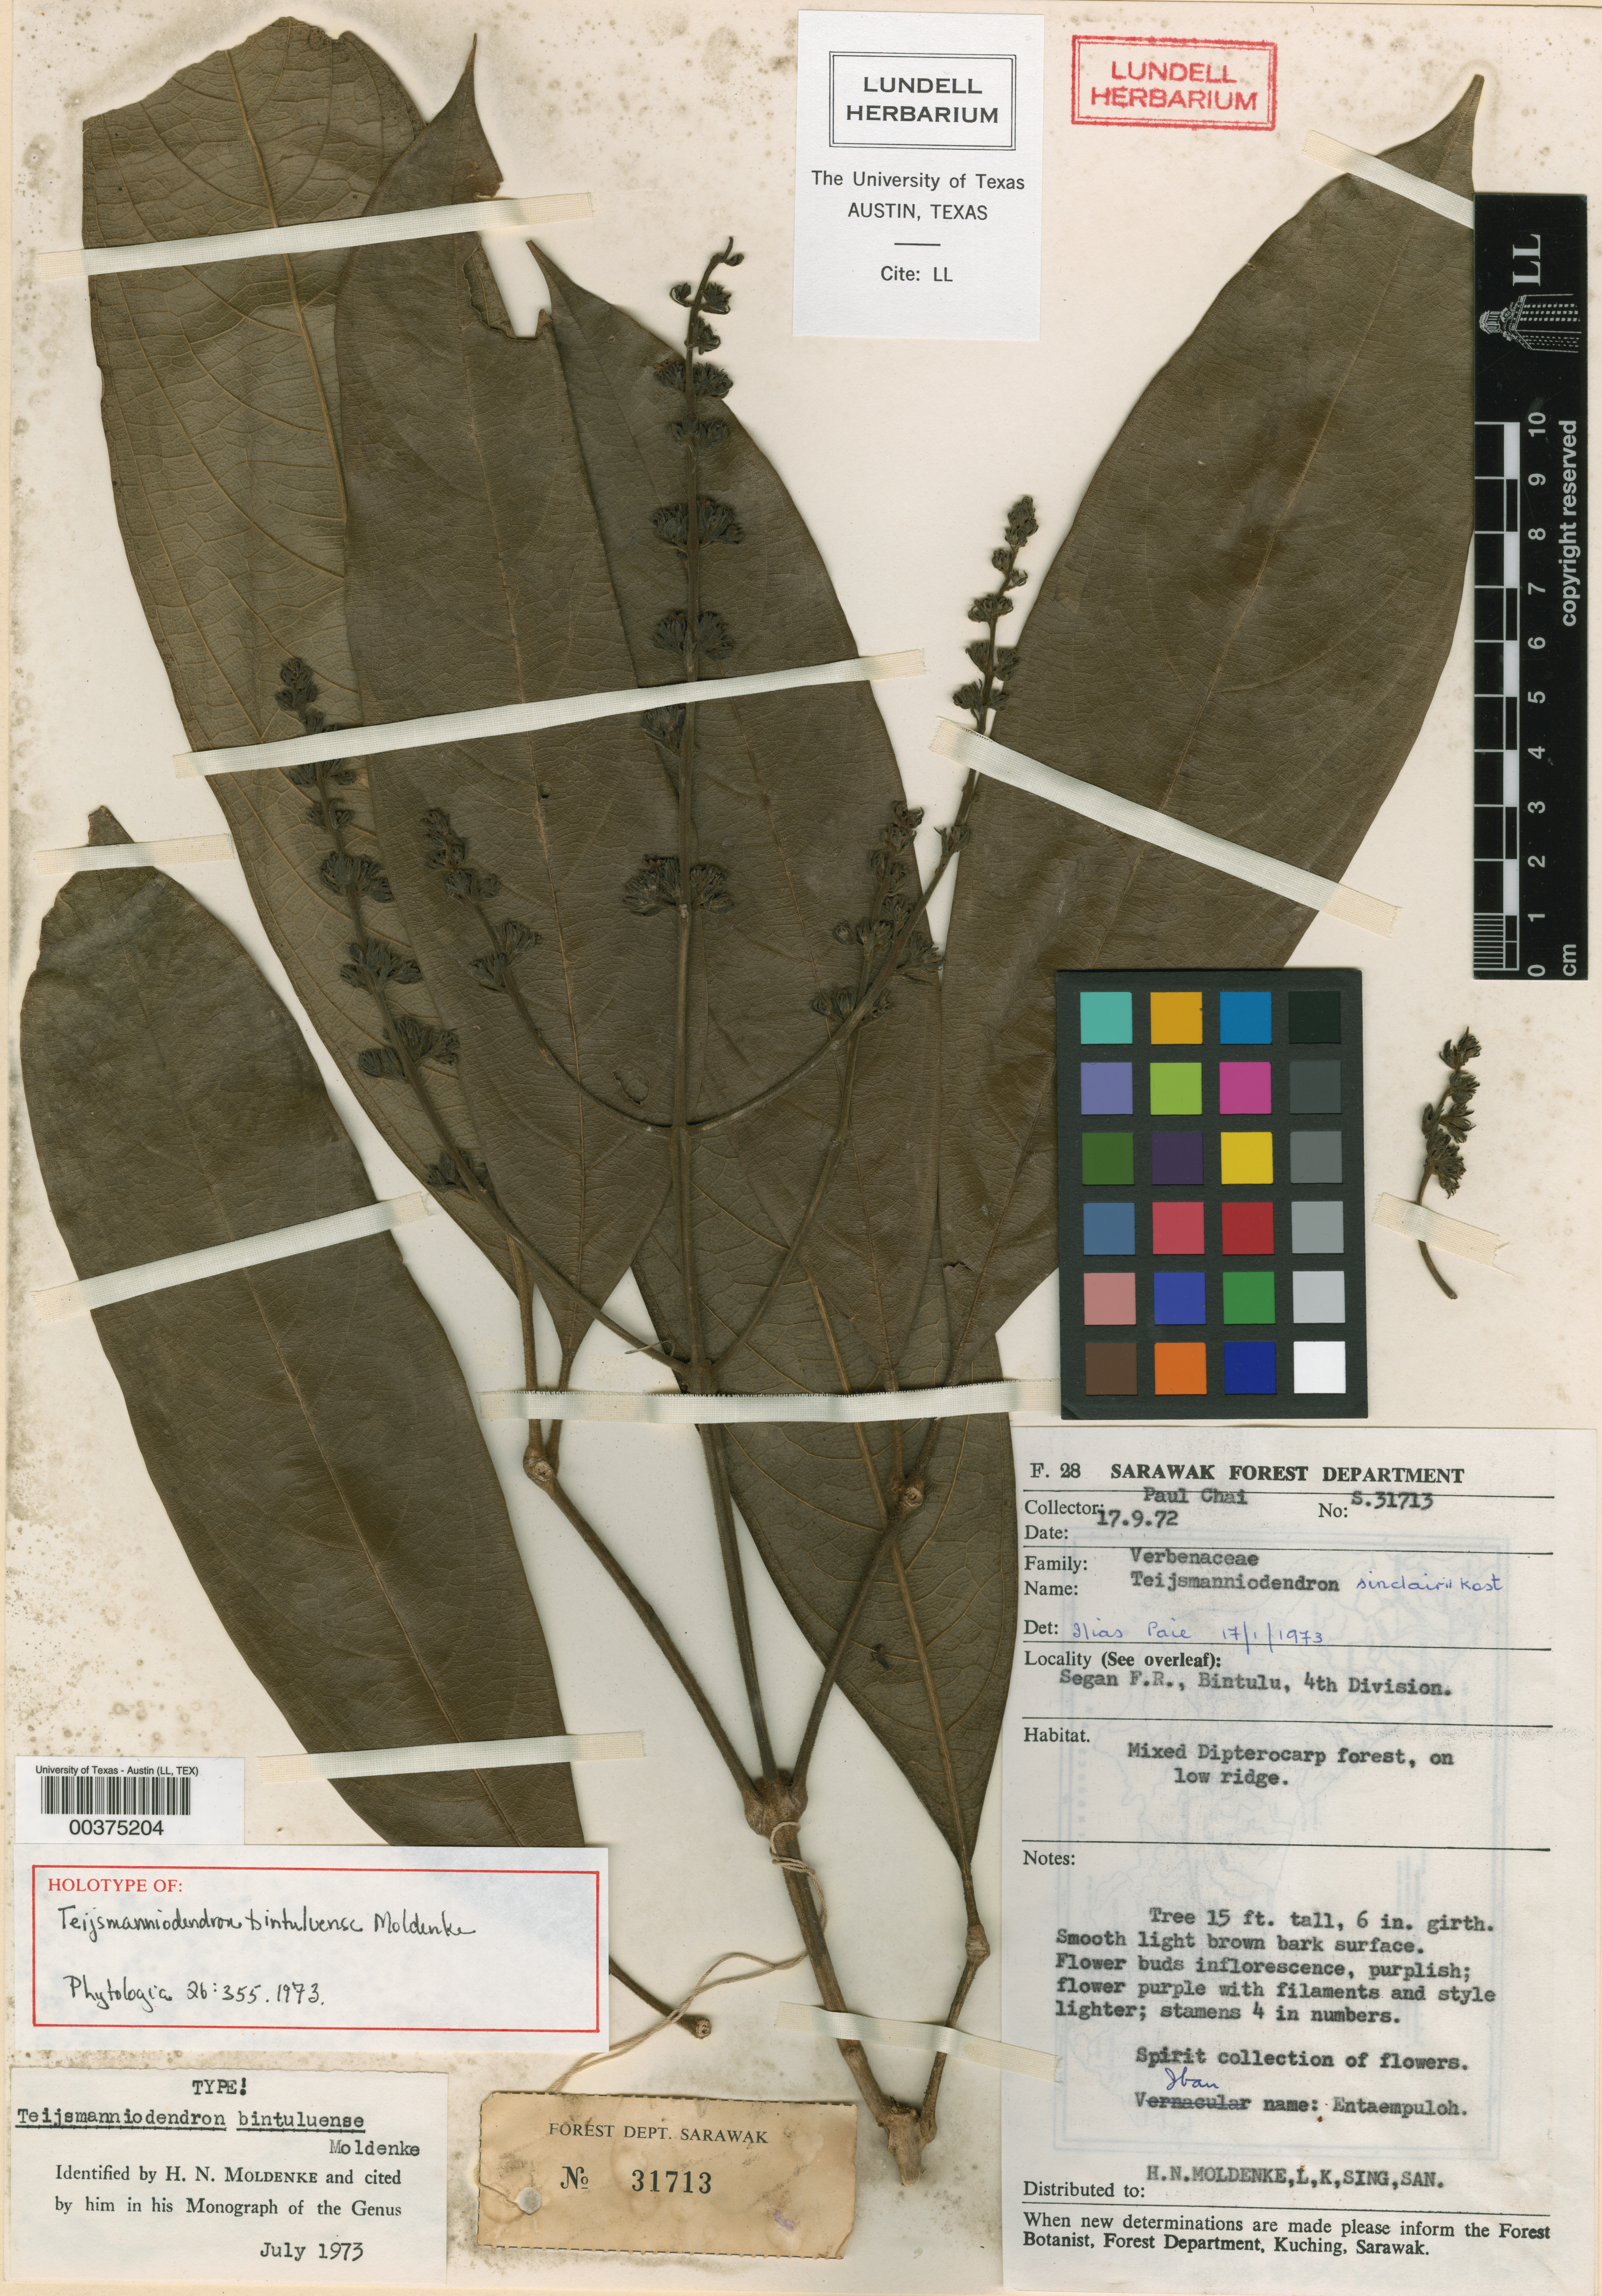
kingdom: Plantae
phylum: Tracheophyta
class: Magnoliopsida
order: Lamiales
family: Lamiaceae
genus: Teijsmanniodendron
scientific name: Teijsmanniodendron bintuluense
